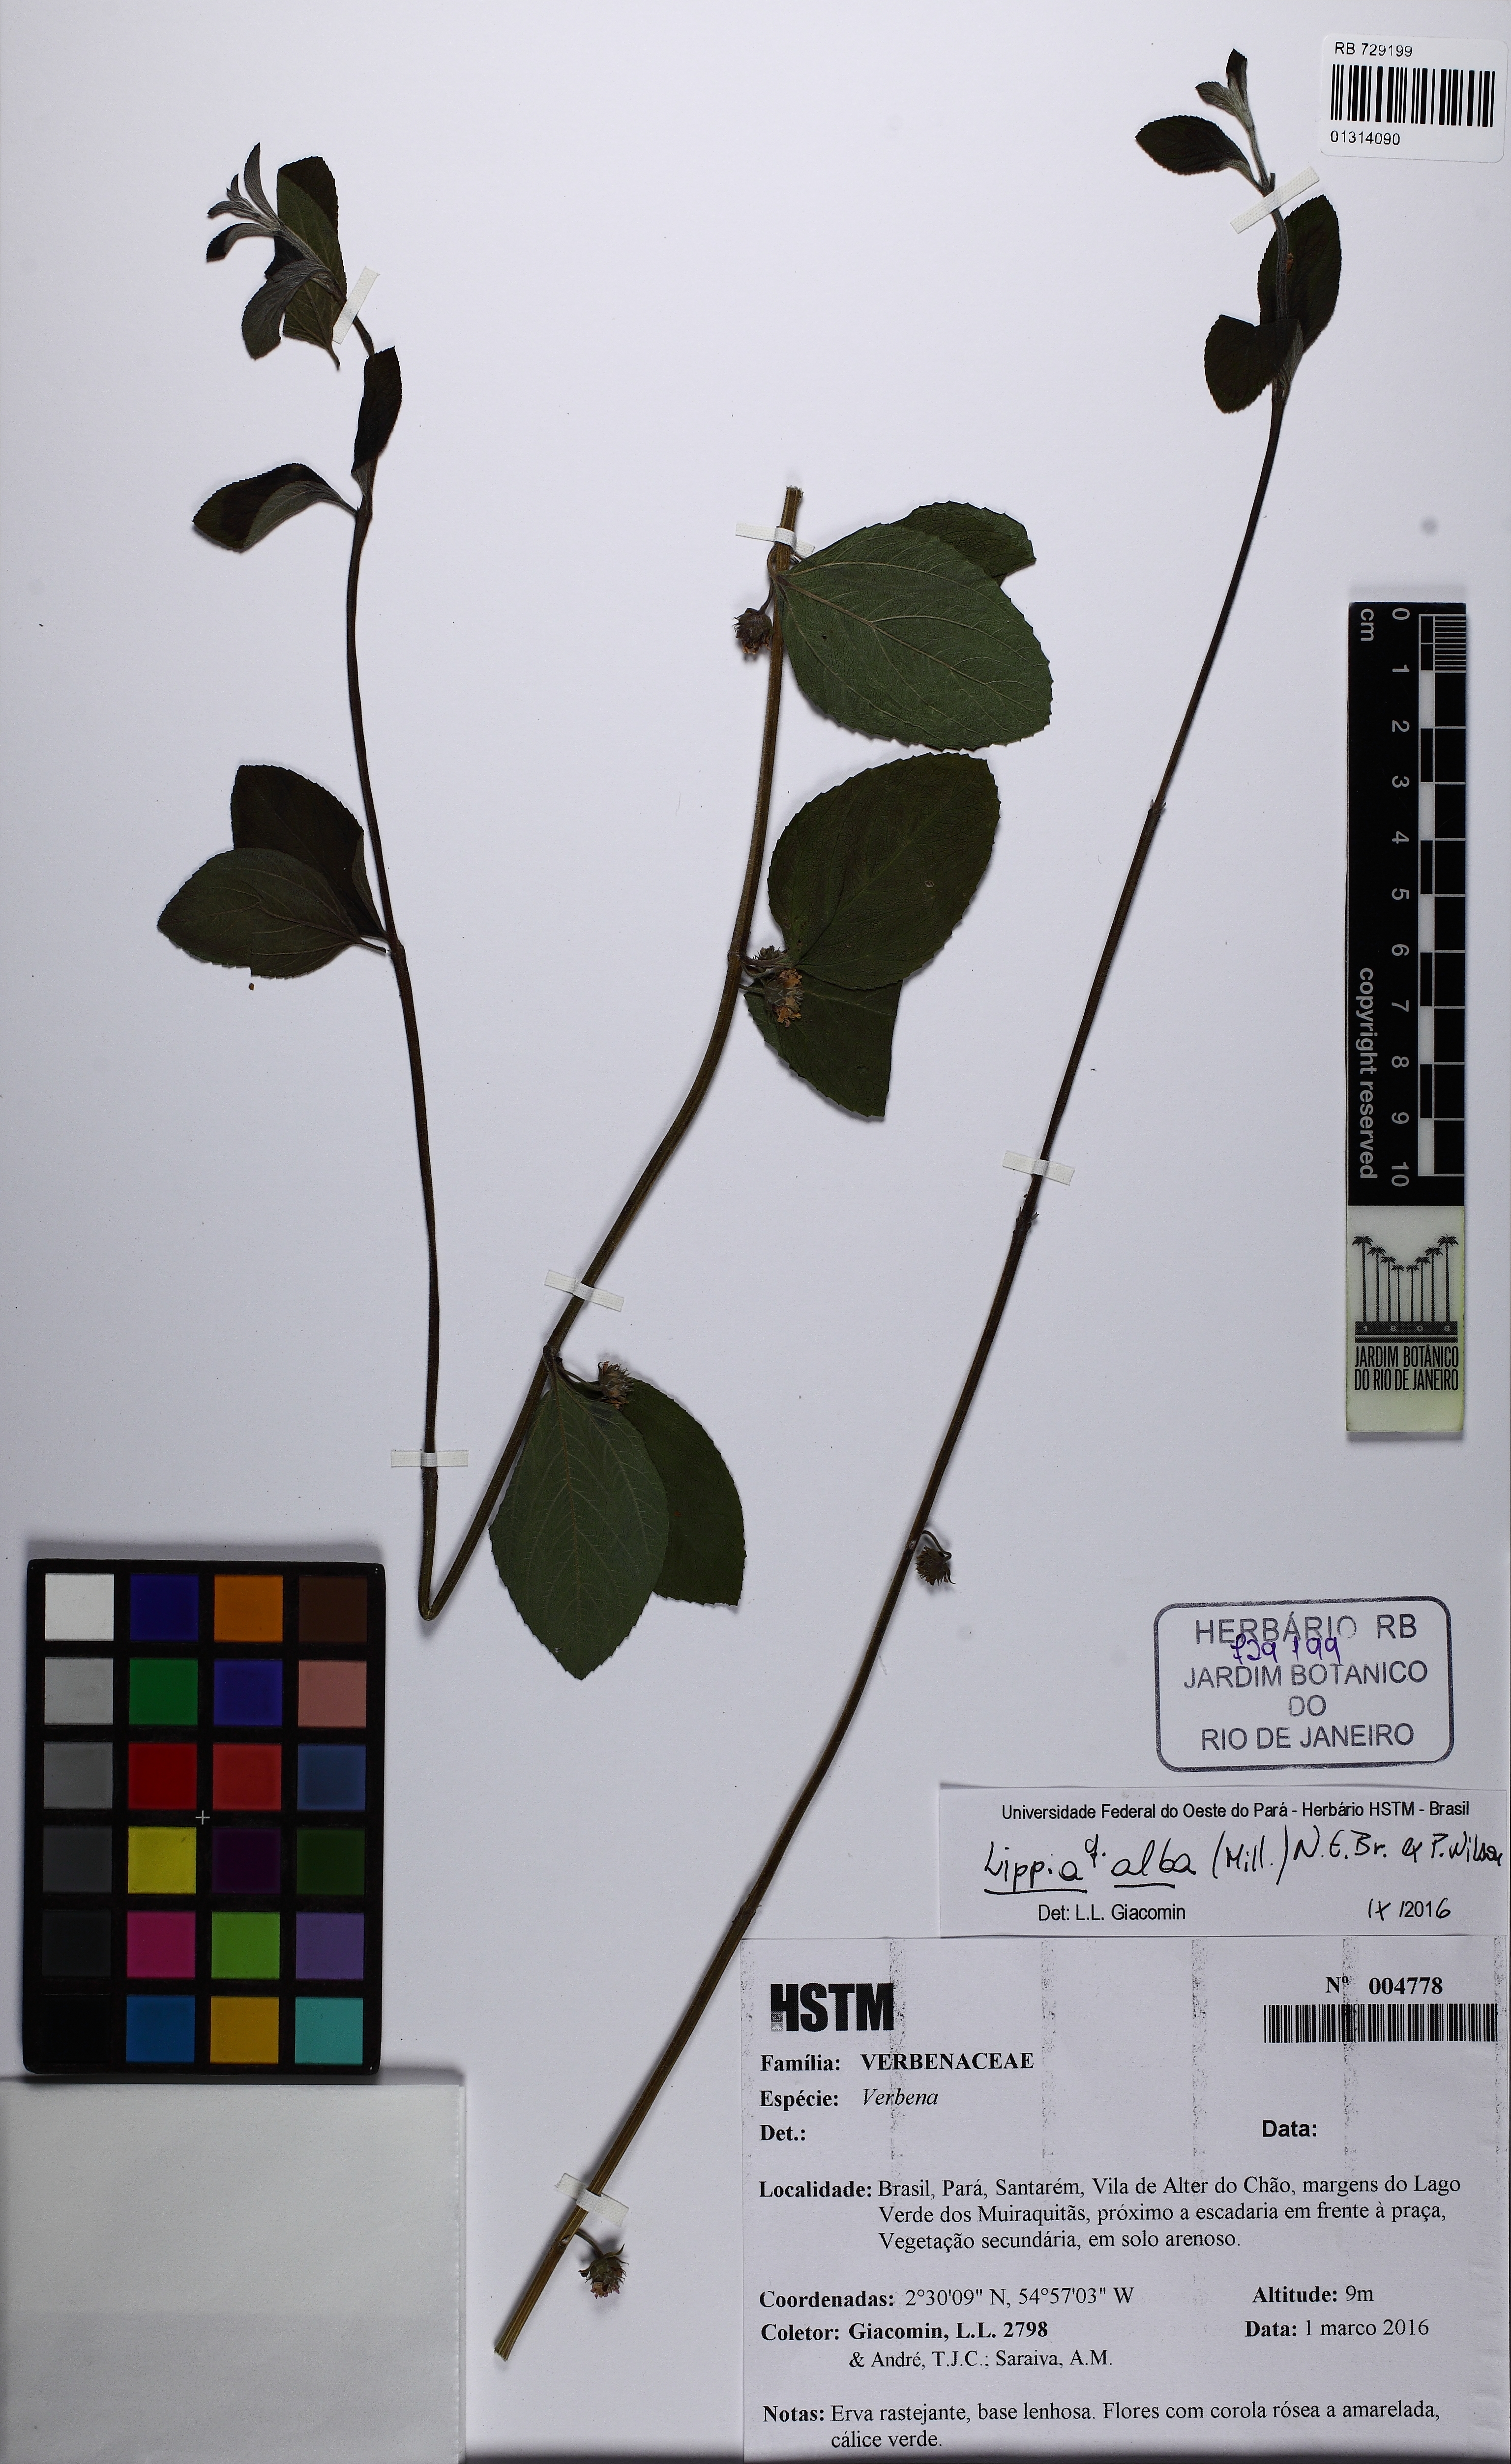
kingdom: Plantae
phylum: Tracheophyta
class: Magnoliopsida
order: Lamiales
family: Verbenaceae
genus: Lippia
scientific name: Lippia alba
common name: Bushy matgrass
